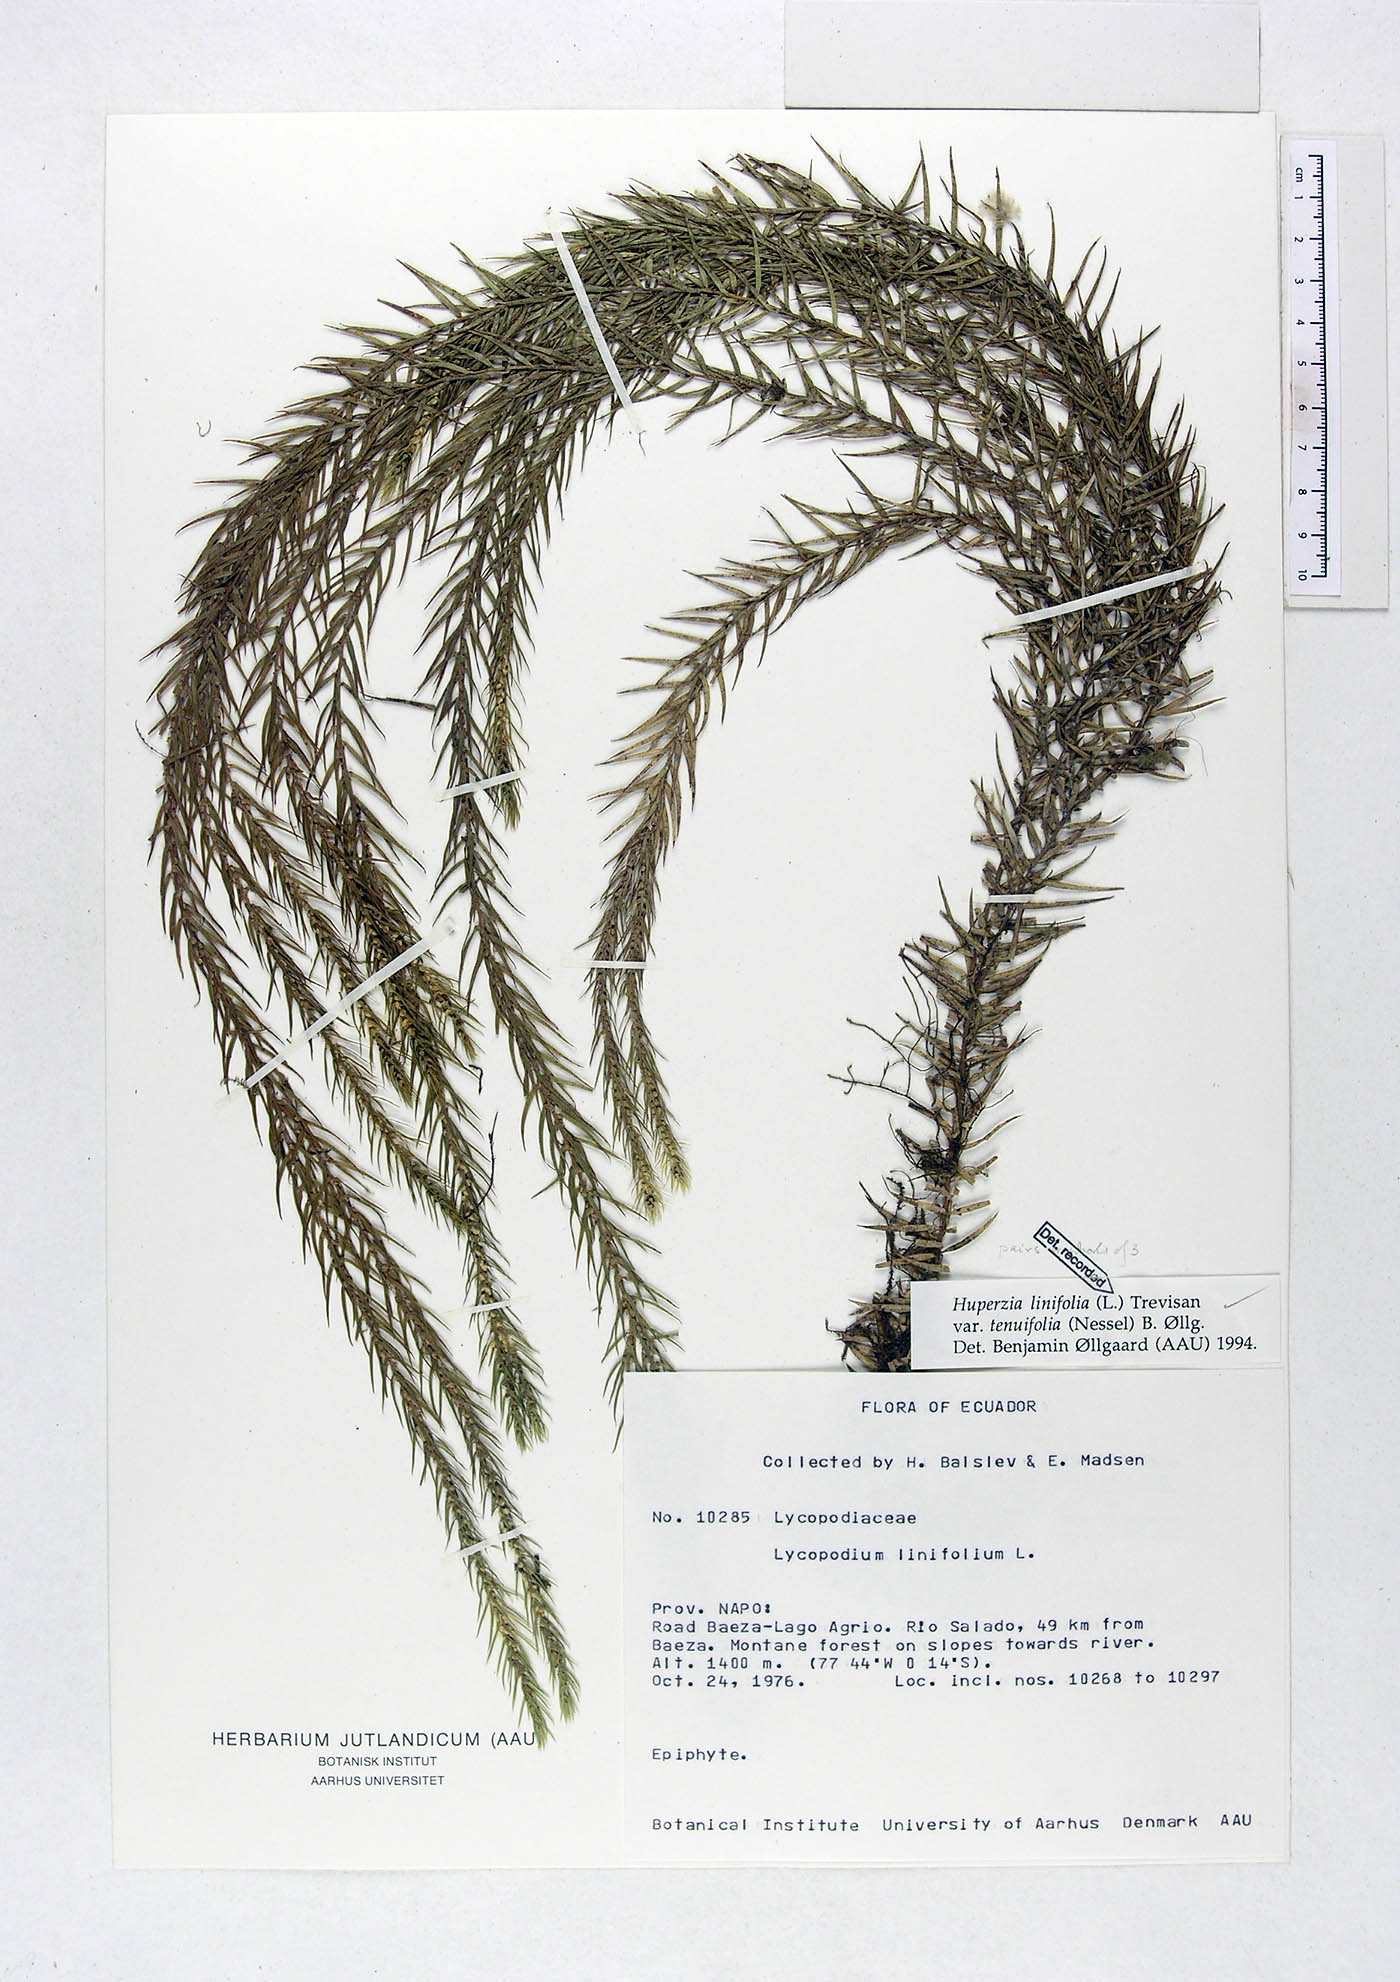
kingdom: Plantae
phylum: Tracheophyta
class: Lycopodiopsida
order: Lycopodiales
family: Lycopodiaceae
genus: Phlegmariurus
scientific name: Phlegmariurus linifolius
